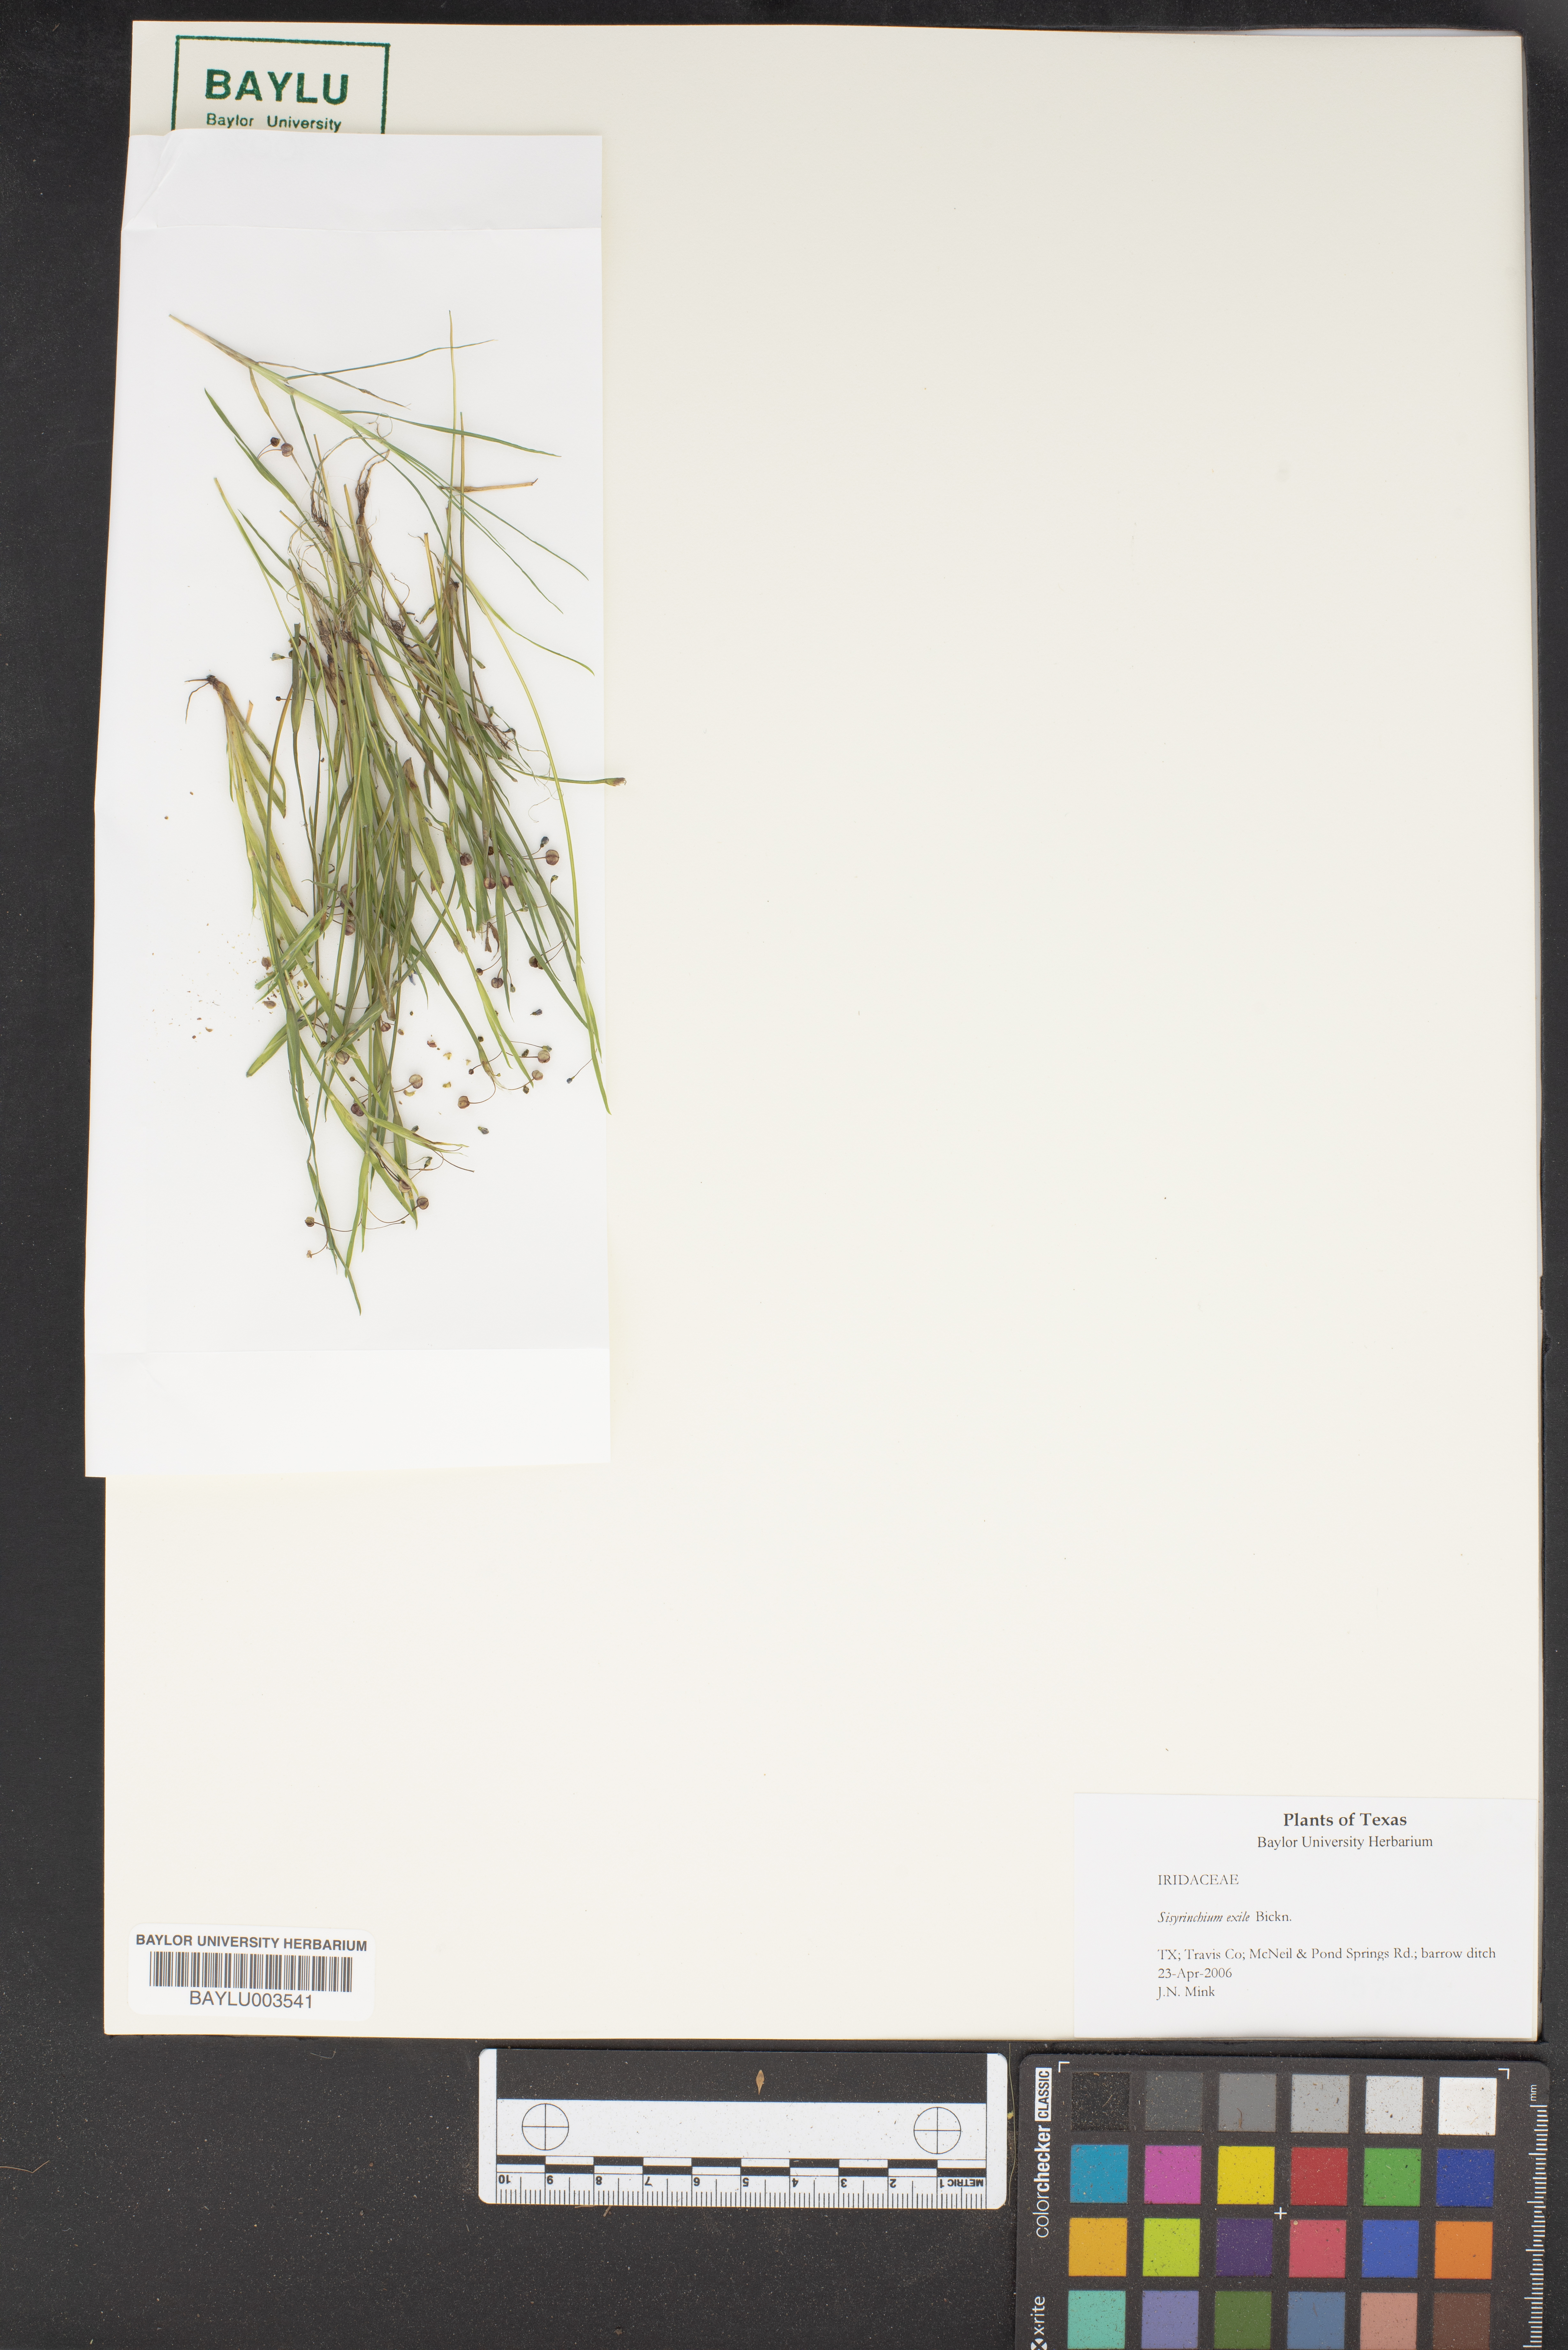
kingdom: Plantae
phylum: Tracheophyta
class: Liliopsida
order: Asparagales
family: Iridaceae
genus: Sisyrinchium
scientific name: Sisyrinchium rosulatum
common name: Annual blue-eyed grass
